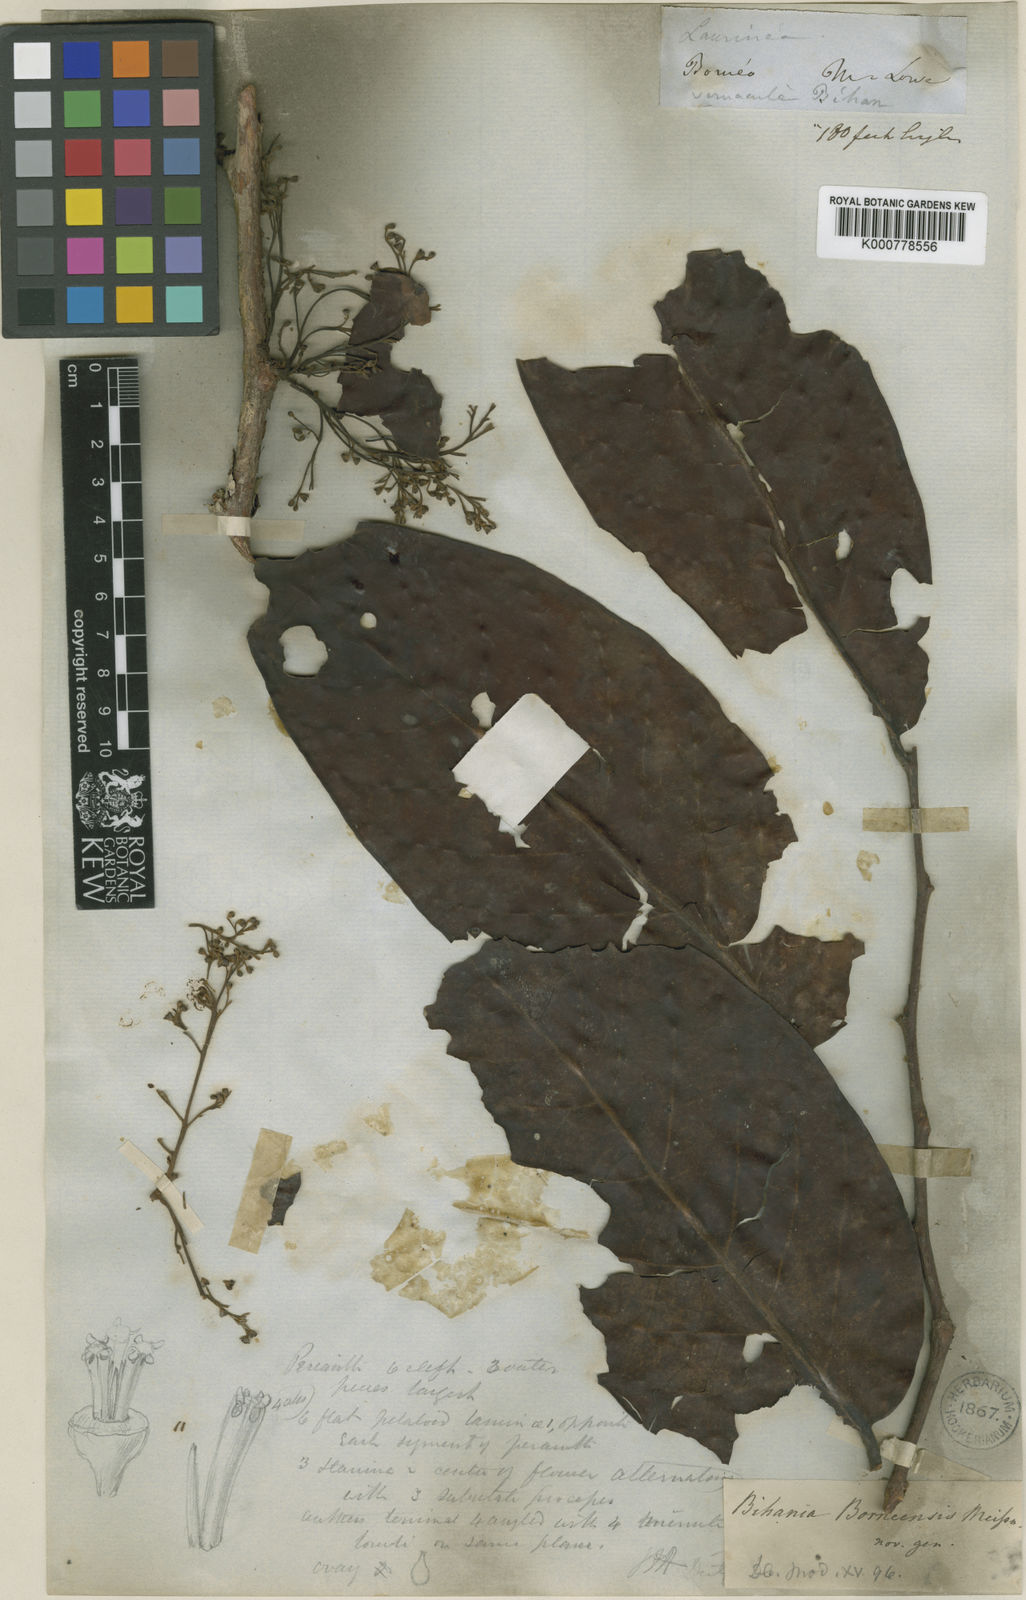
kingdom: Plantae
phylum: Tracheophyta
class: Magnoliopsida
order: Laurales
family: Lauraceae
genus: Eusideroxylon
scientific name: Eusideroxylon zwageri
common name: Borneo ironwood
